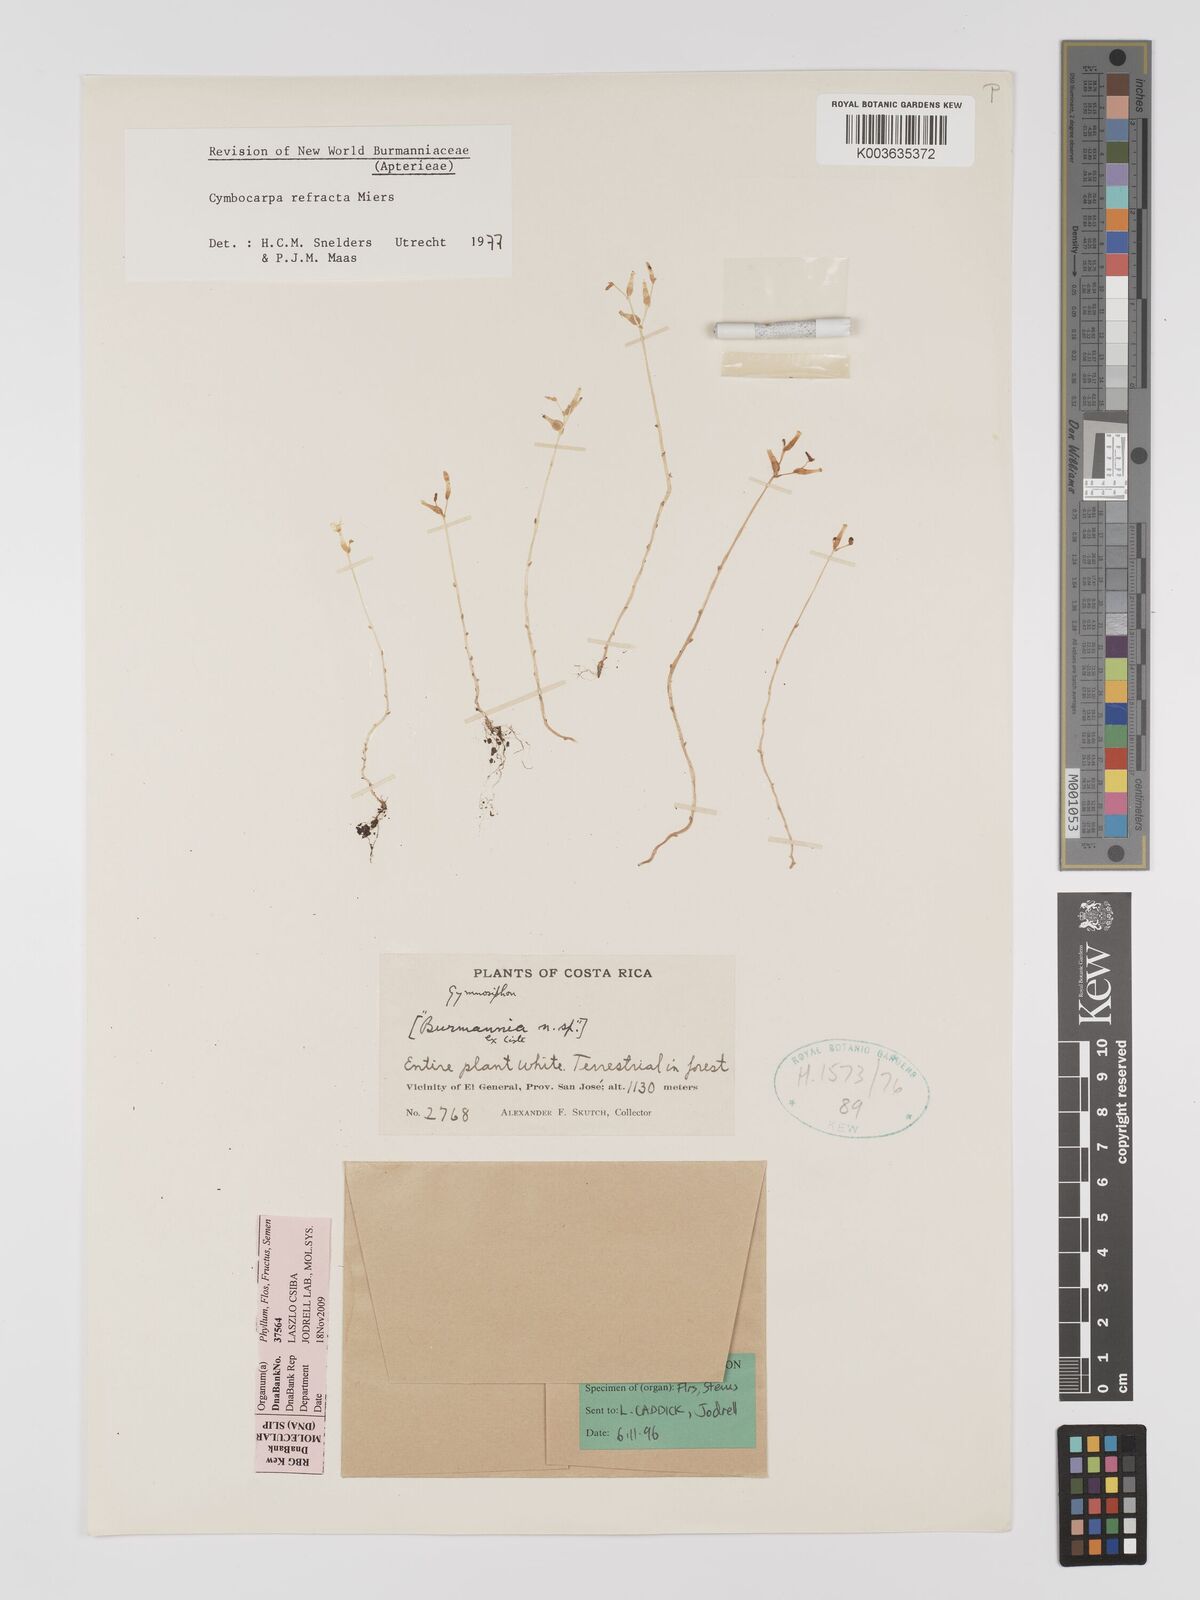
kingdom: Plantae
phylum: Tracheophyta
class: Liliopsida
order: Dioscoreales
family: Burmanniaceae
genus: Gymnosiphon
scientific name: Gymnosiphon refractus
